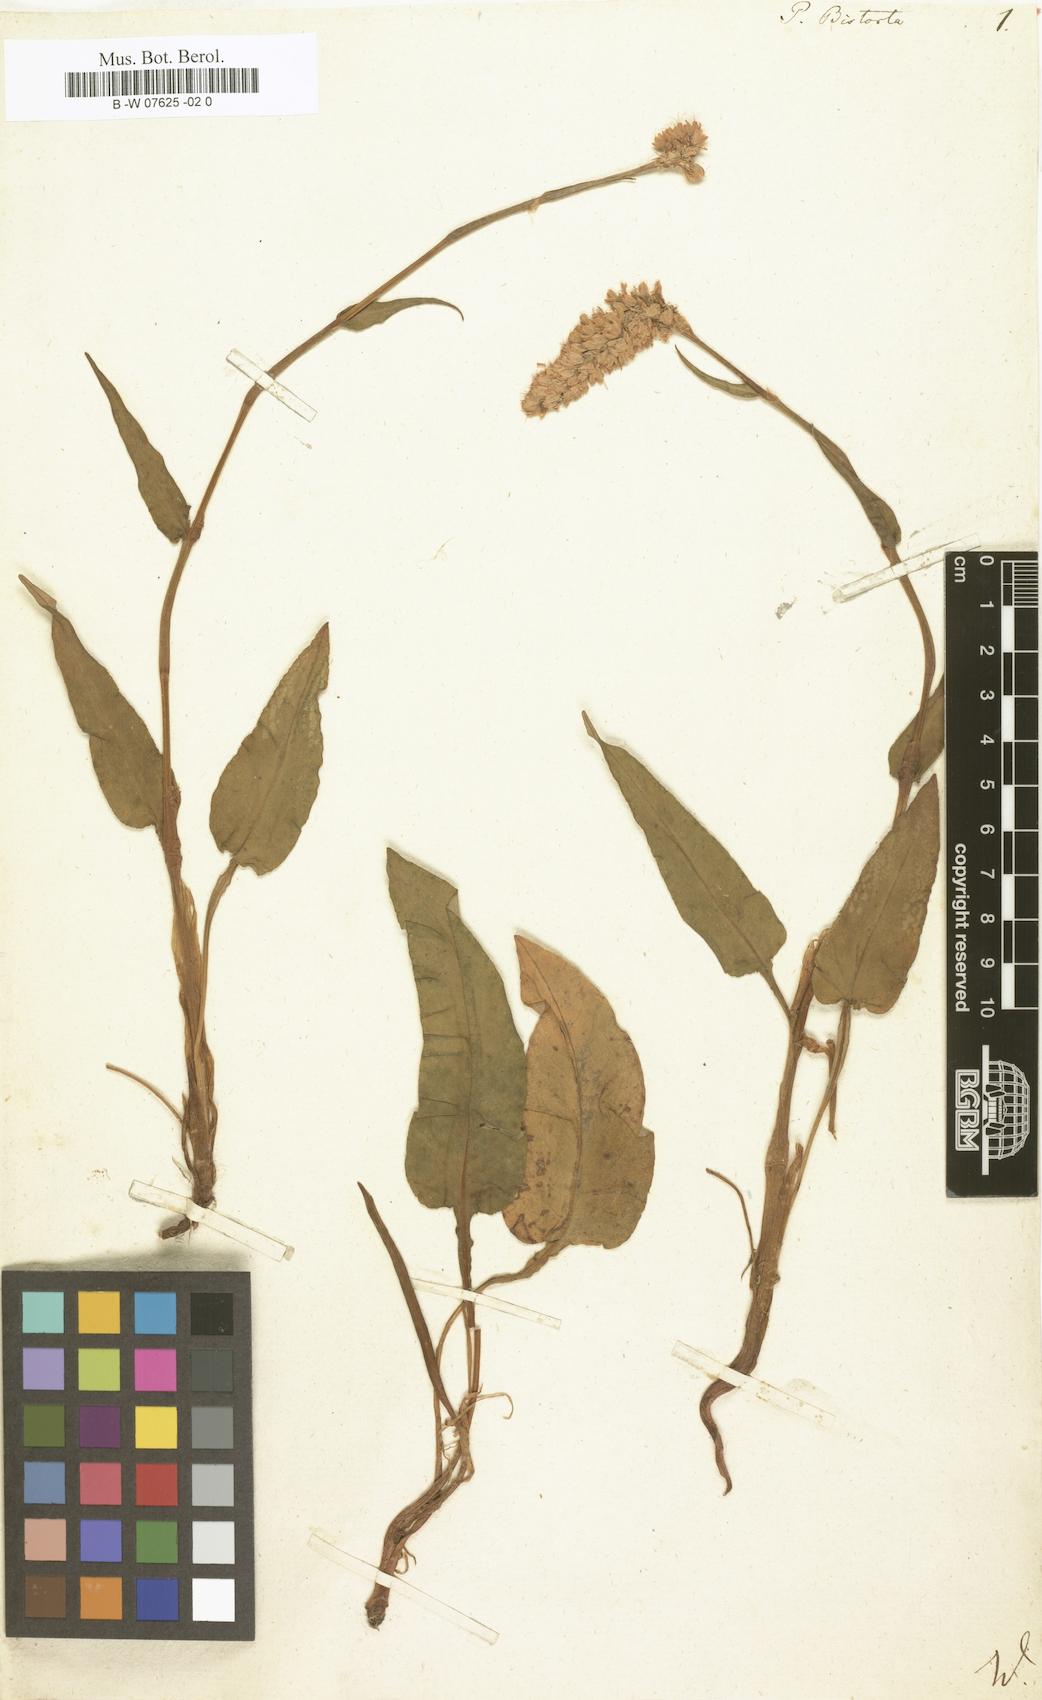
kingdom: Plantae
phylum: Tracheophyta
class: Magnoliopsida
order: Caryophyllales
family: Polygonaceae
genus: Polygonum
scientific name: Polygonum bistorta
